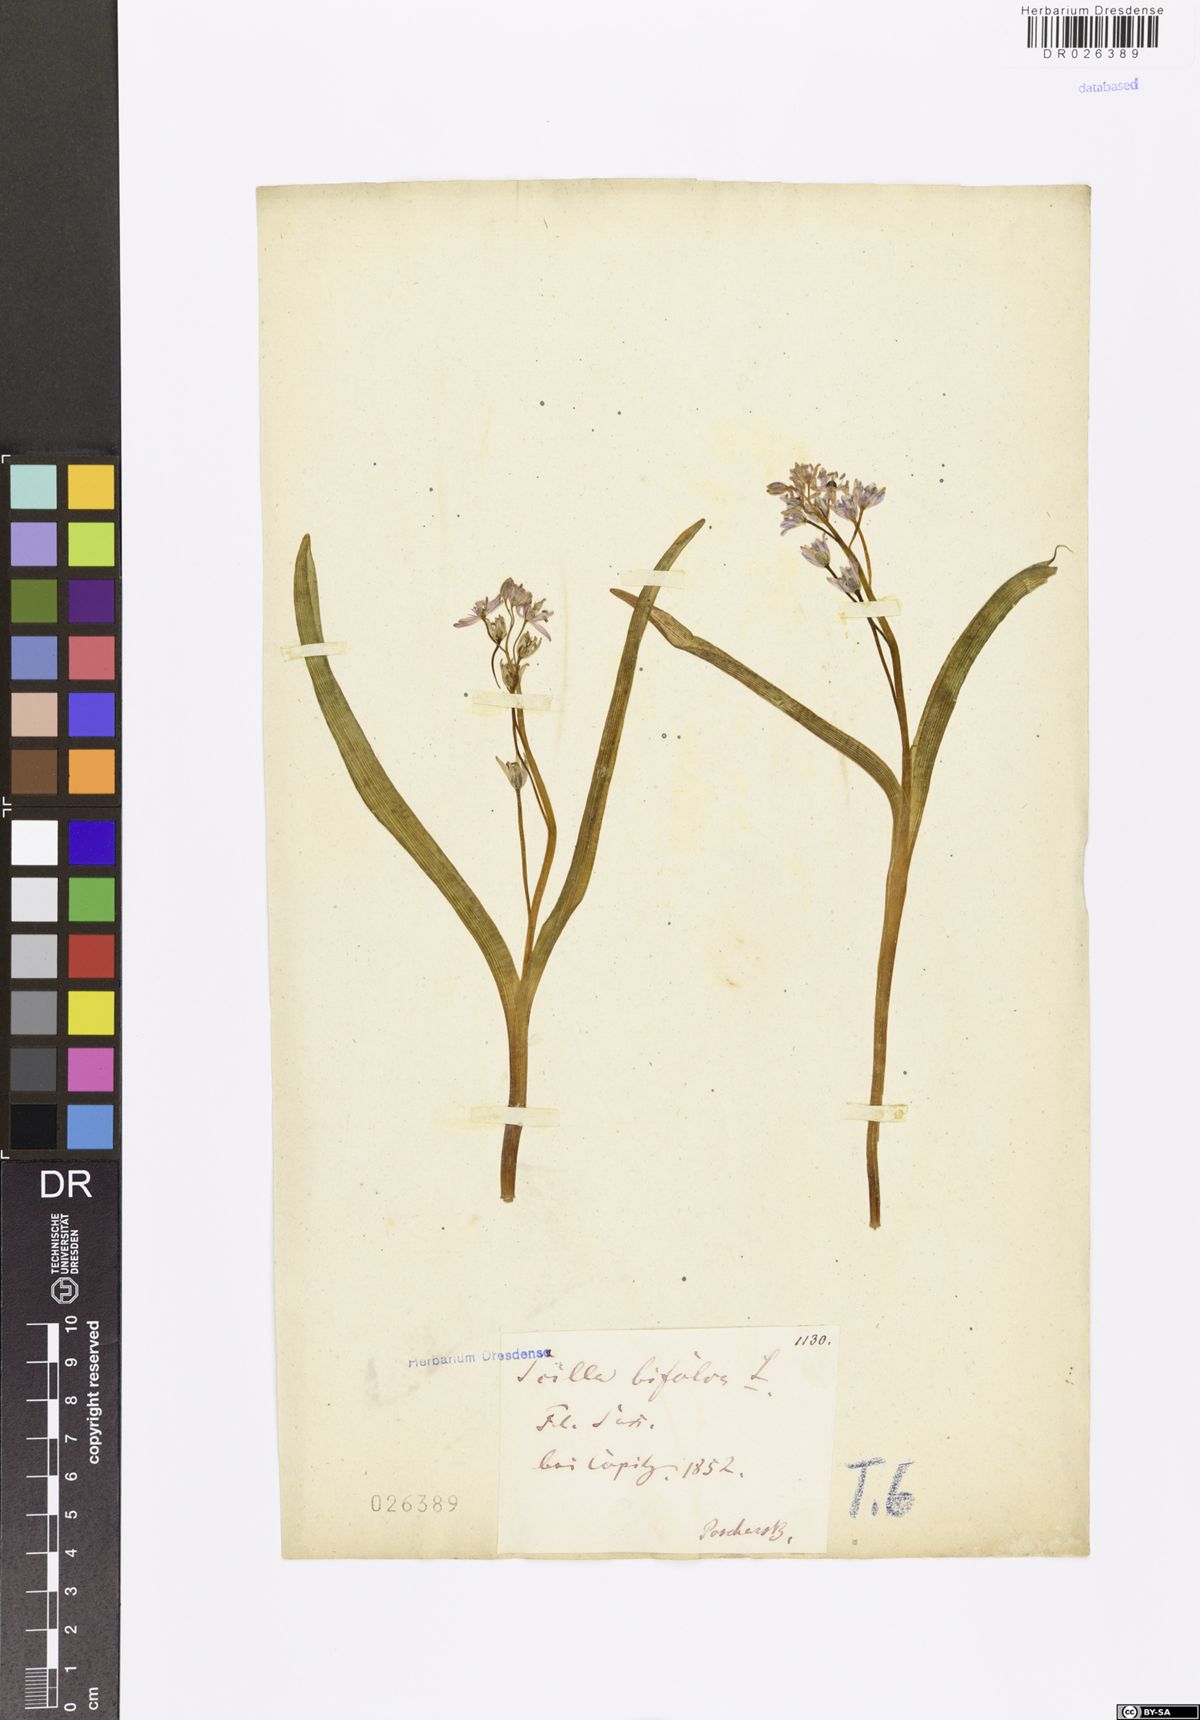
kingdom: Plantae
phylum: Tracheophyta
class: Liliopsida
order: Asparagales
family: Asparagaceae
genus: Scilla
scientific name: Scilla vindobonensis
